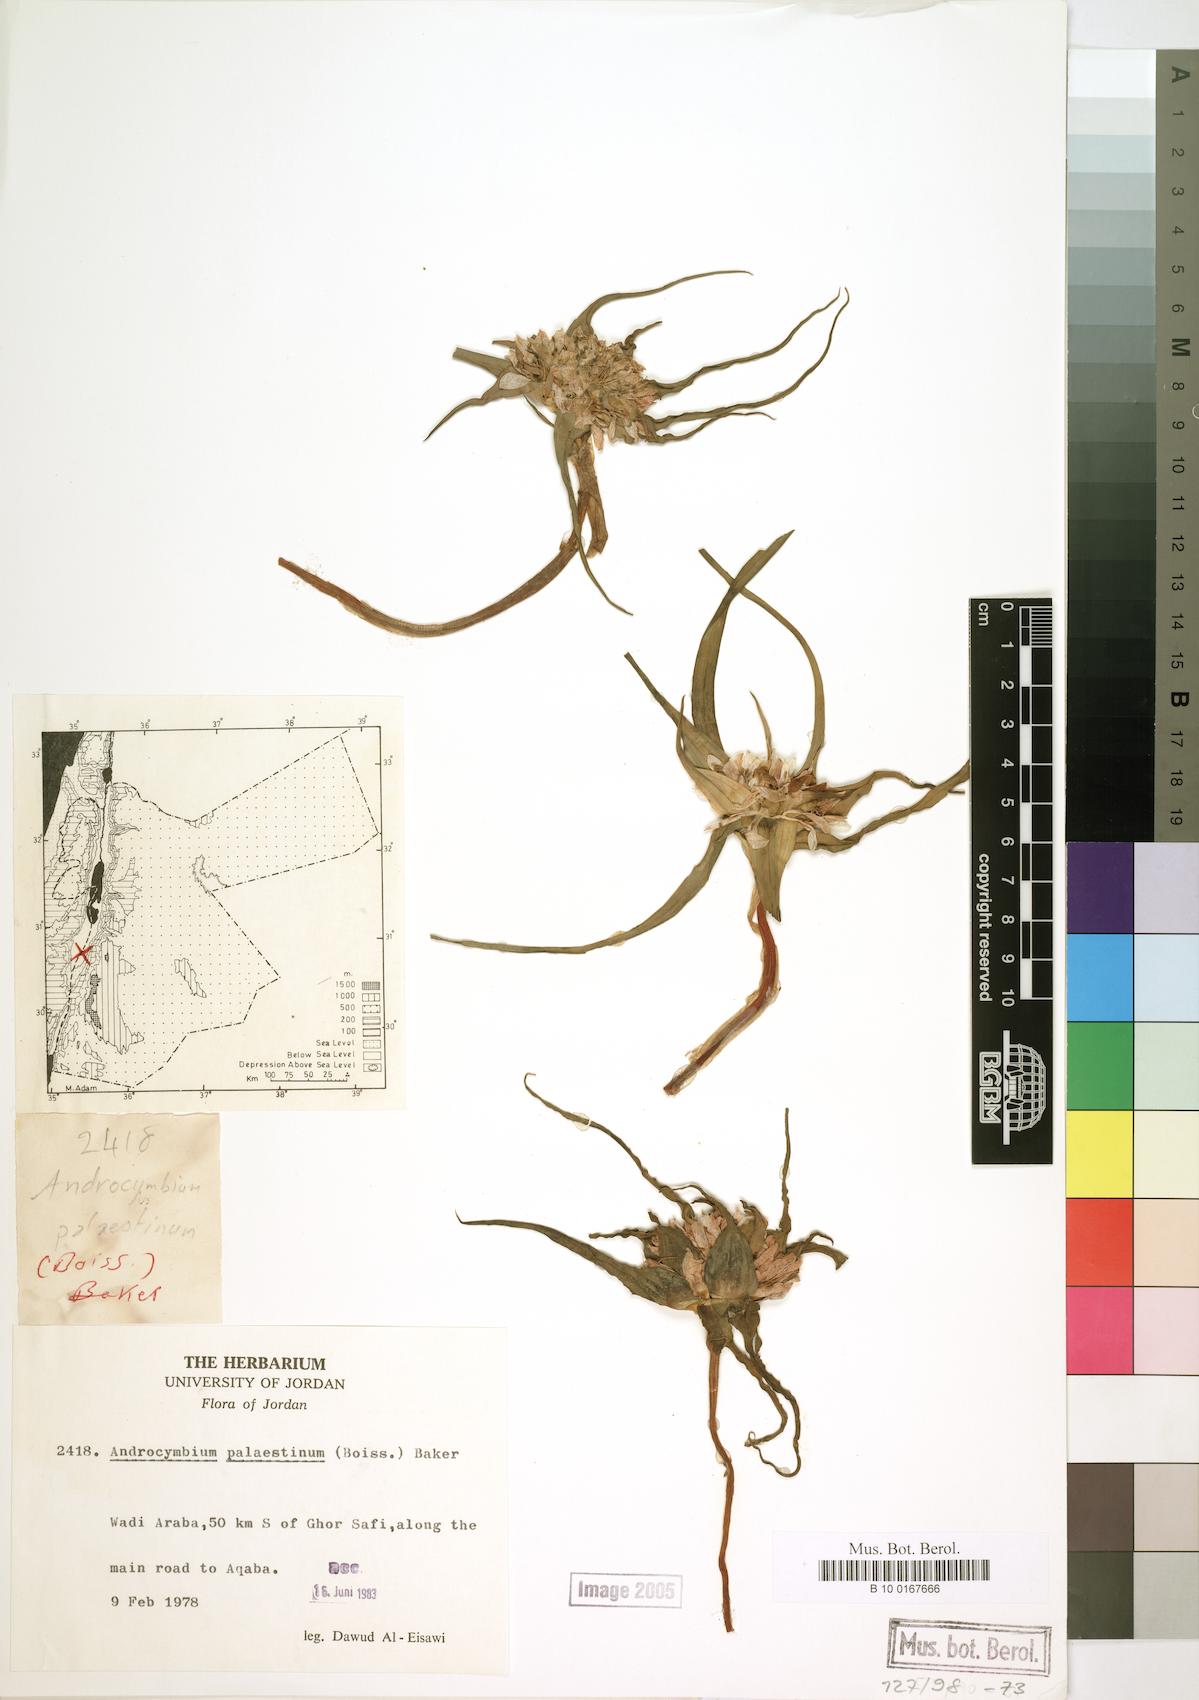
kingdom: Plantae
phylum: Tracheophyta
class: Liliopsida
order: Liliales
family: Colchicaceae
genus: Colchicum
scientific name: Colchicum palaestinum
